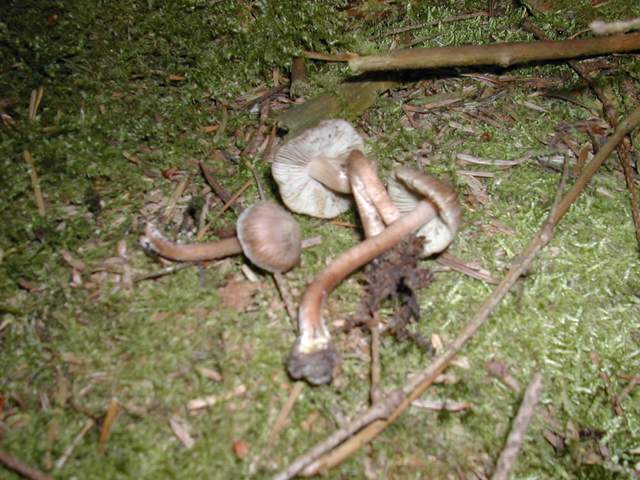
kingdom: Fungi
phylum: Basidiomycota
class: Agaricomycetes
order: Agaricales
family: Inocybaceae
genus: Inocybe
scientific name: Inocybe assimilata
